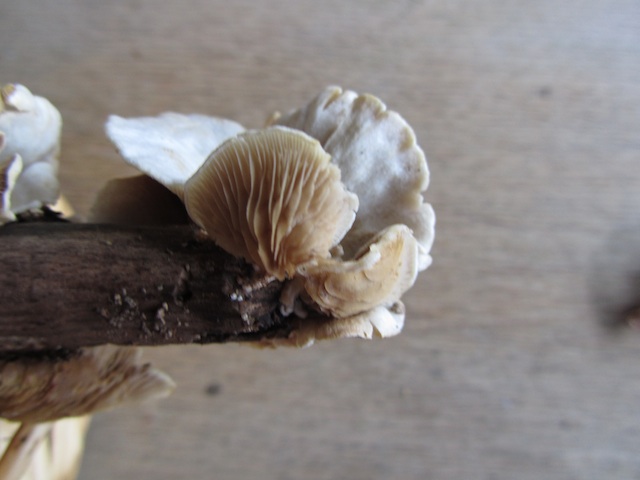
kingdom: Fungi
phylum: Basidiomycota
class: Agaricomycetes
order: Agaricales
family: Crepidotaceae
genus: Crepidotus
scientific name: Crepidotus caspari
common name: Lundells muslingesvamp
